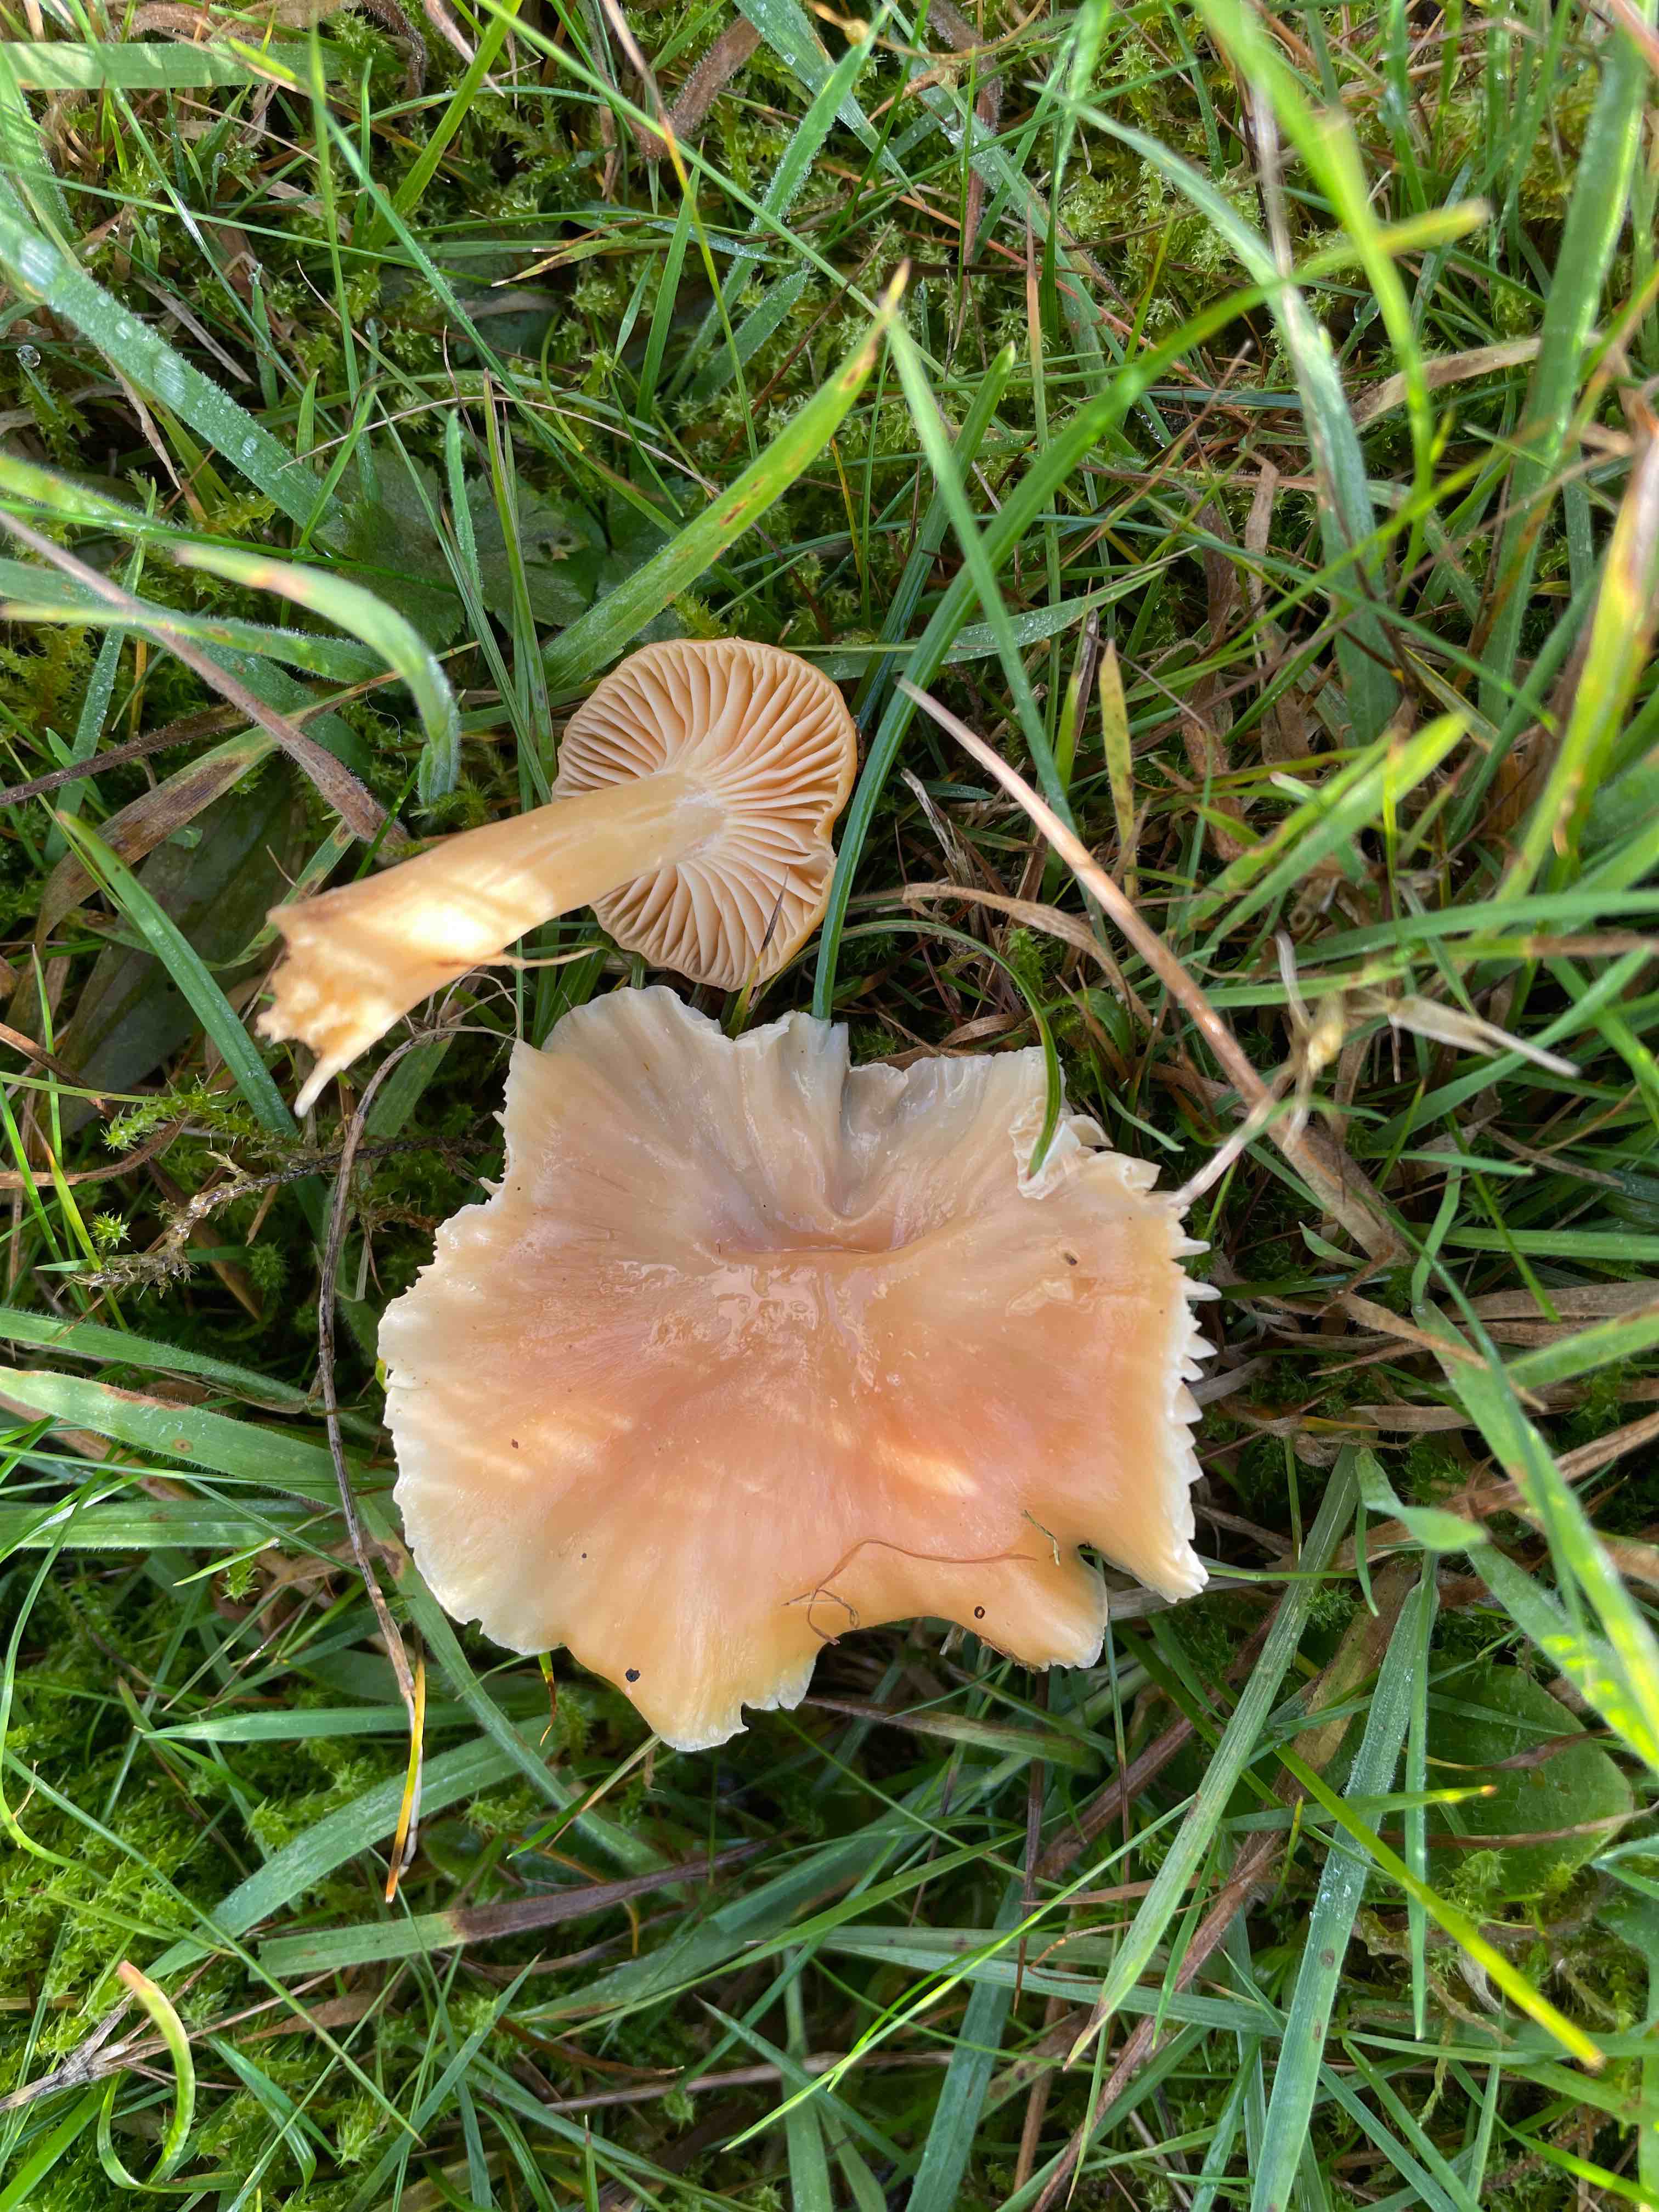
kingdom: Fungi
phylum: Basidiomycota
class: Agaricomycetes
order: Agaricales
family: Hygrophoraceae
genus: Cuphophyllus
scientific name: Cuphophyllus pratensis
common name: eng-vokshat
